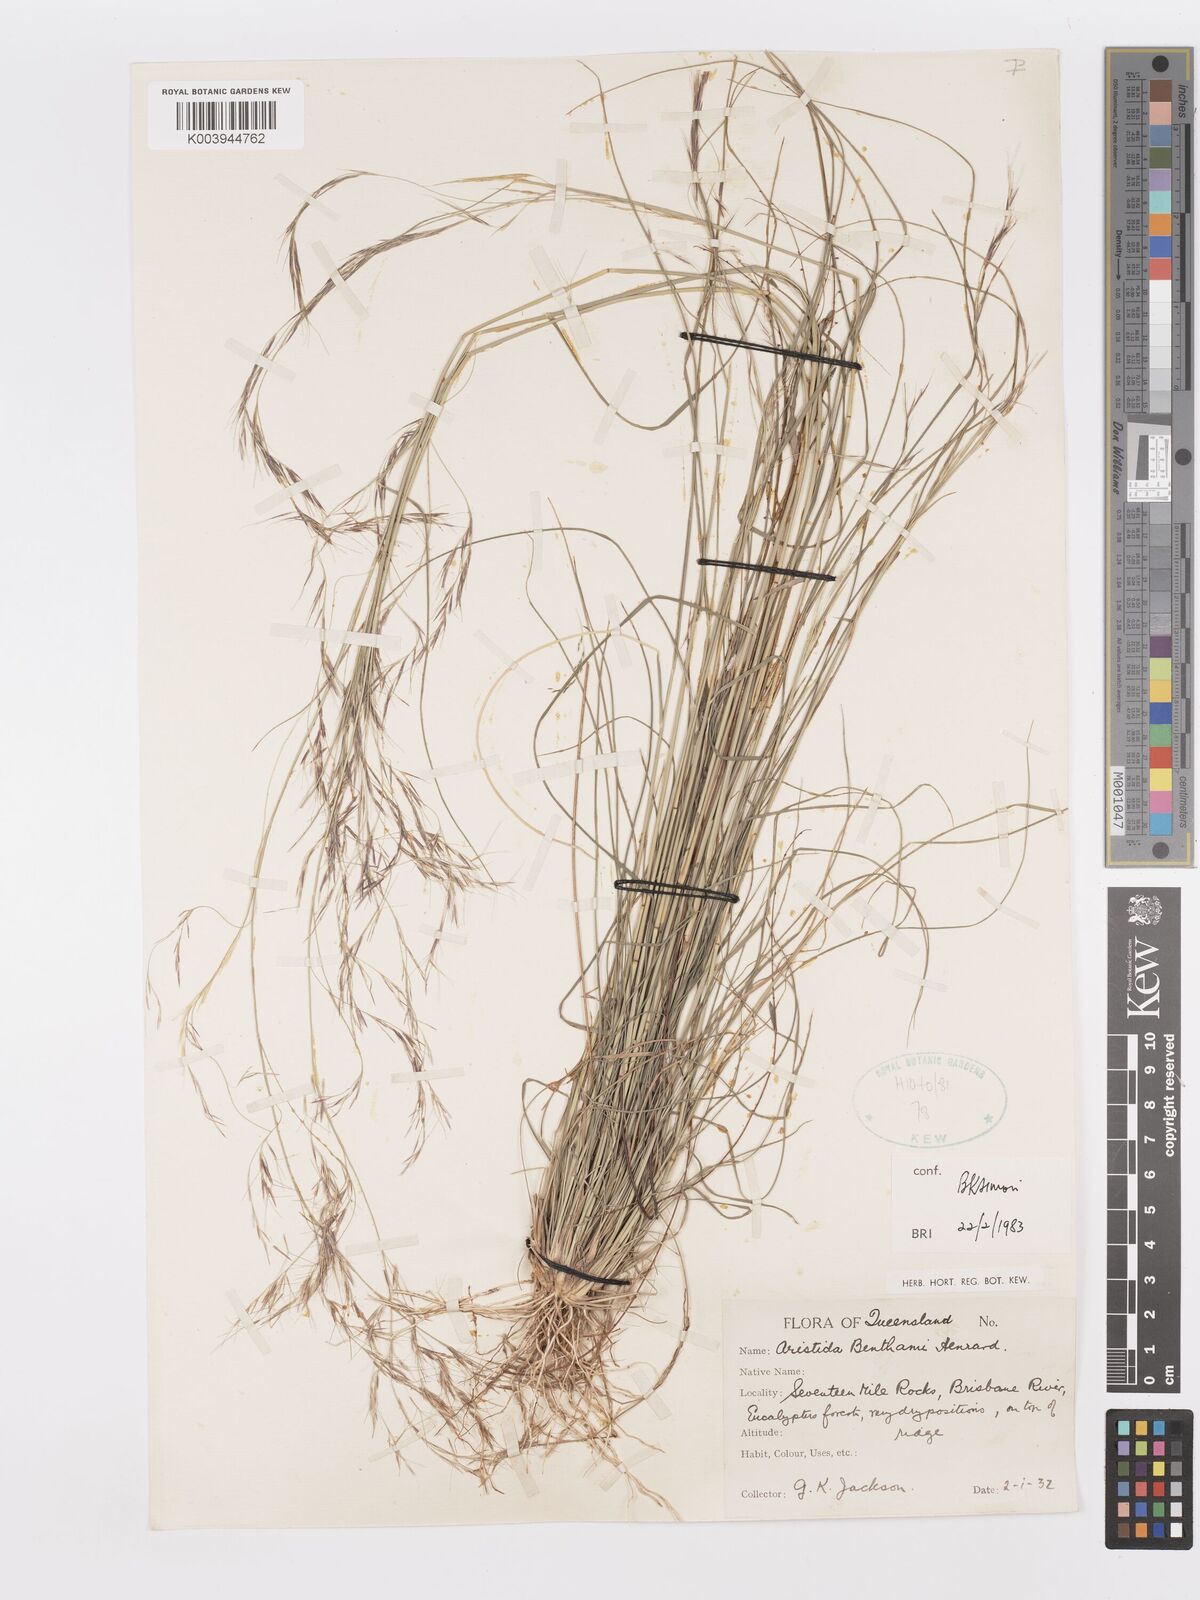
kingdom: Plantae
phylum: Tracheophyta
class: Liliopsida
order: Poales
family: Poaceae
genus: Aristida
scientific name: Aristida benthamii
